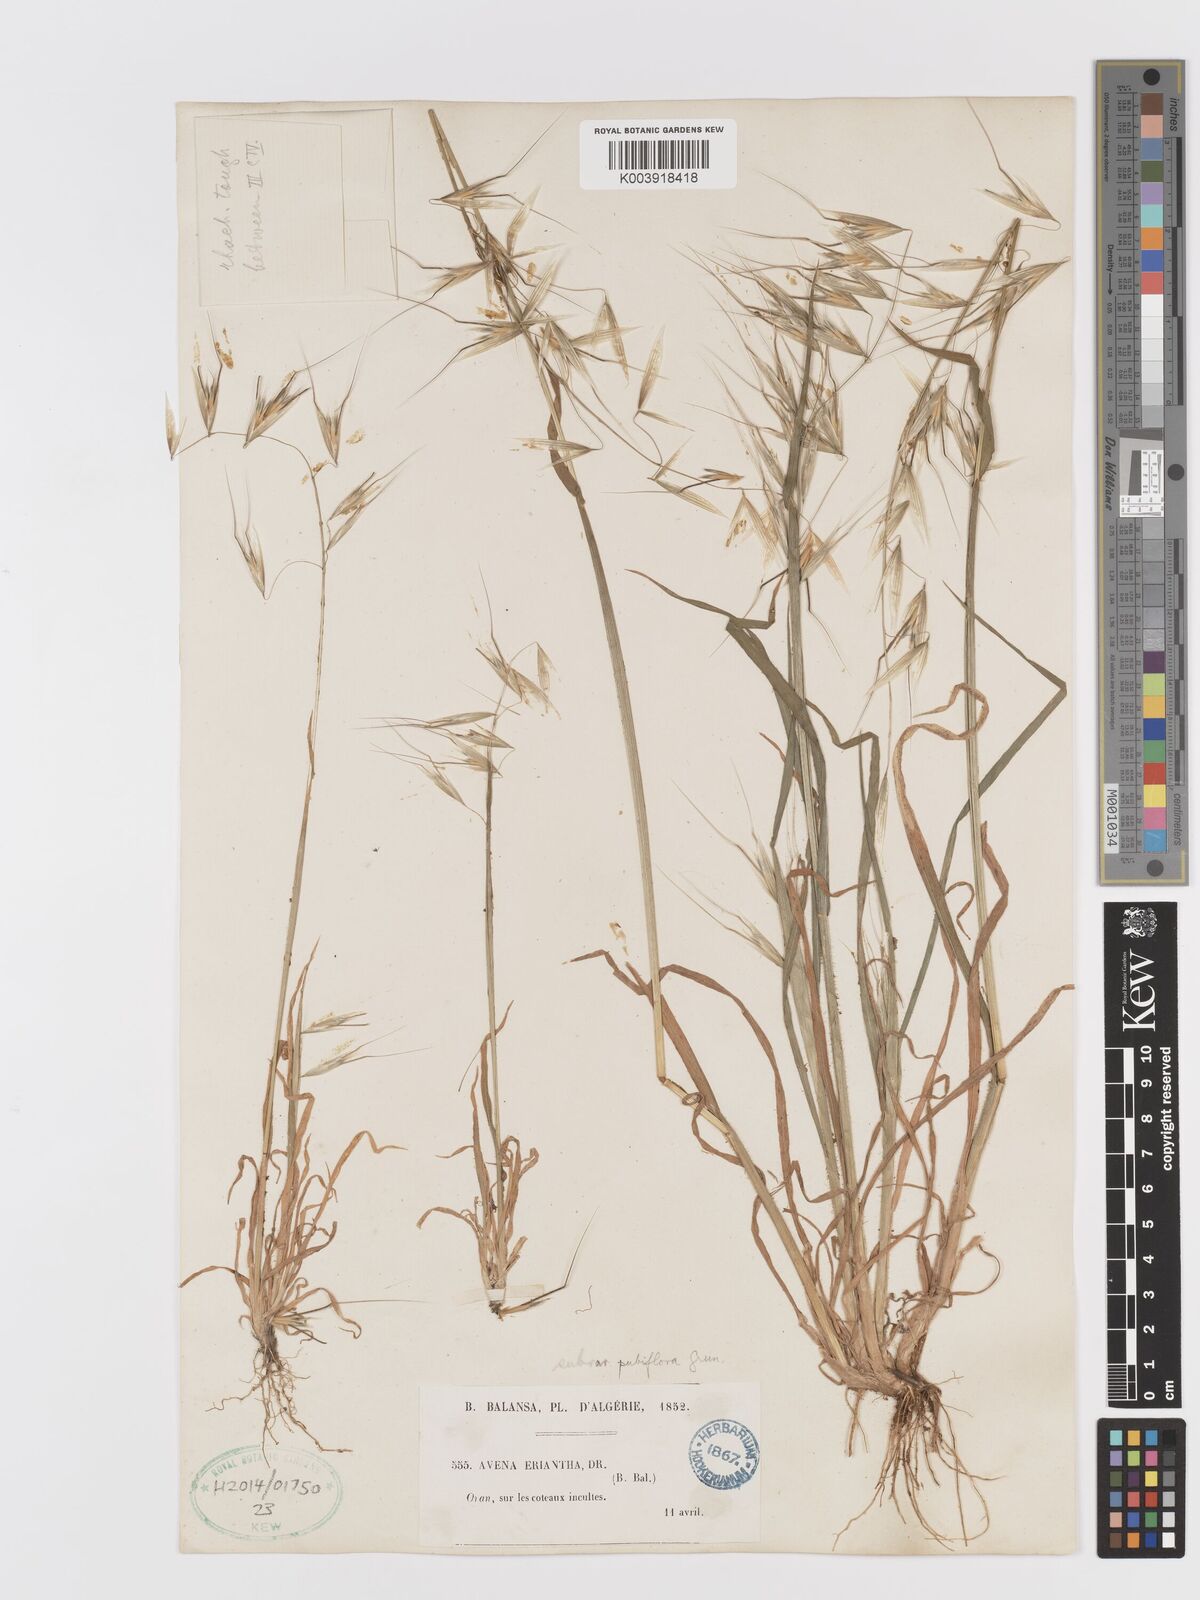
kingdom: Plantae
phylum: Tracheophyta
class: Liliopsida
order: Poales
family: Poaceae
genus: Avena
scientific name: Avena clauda
